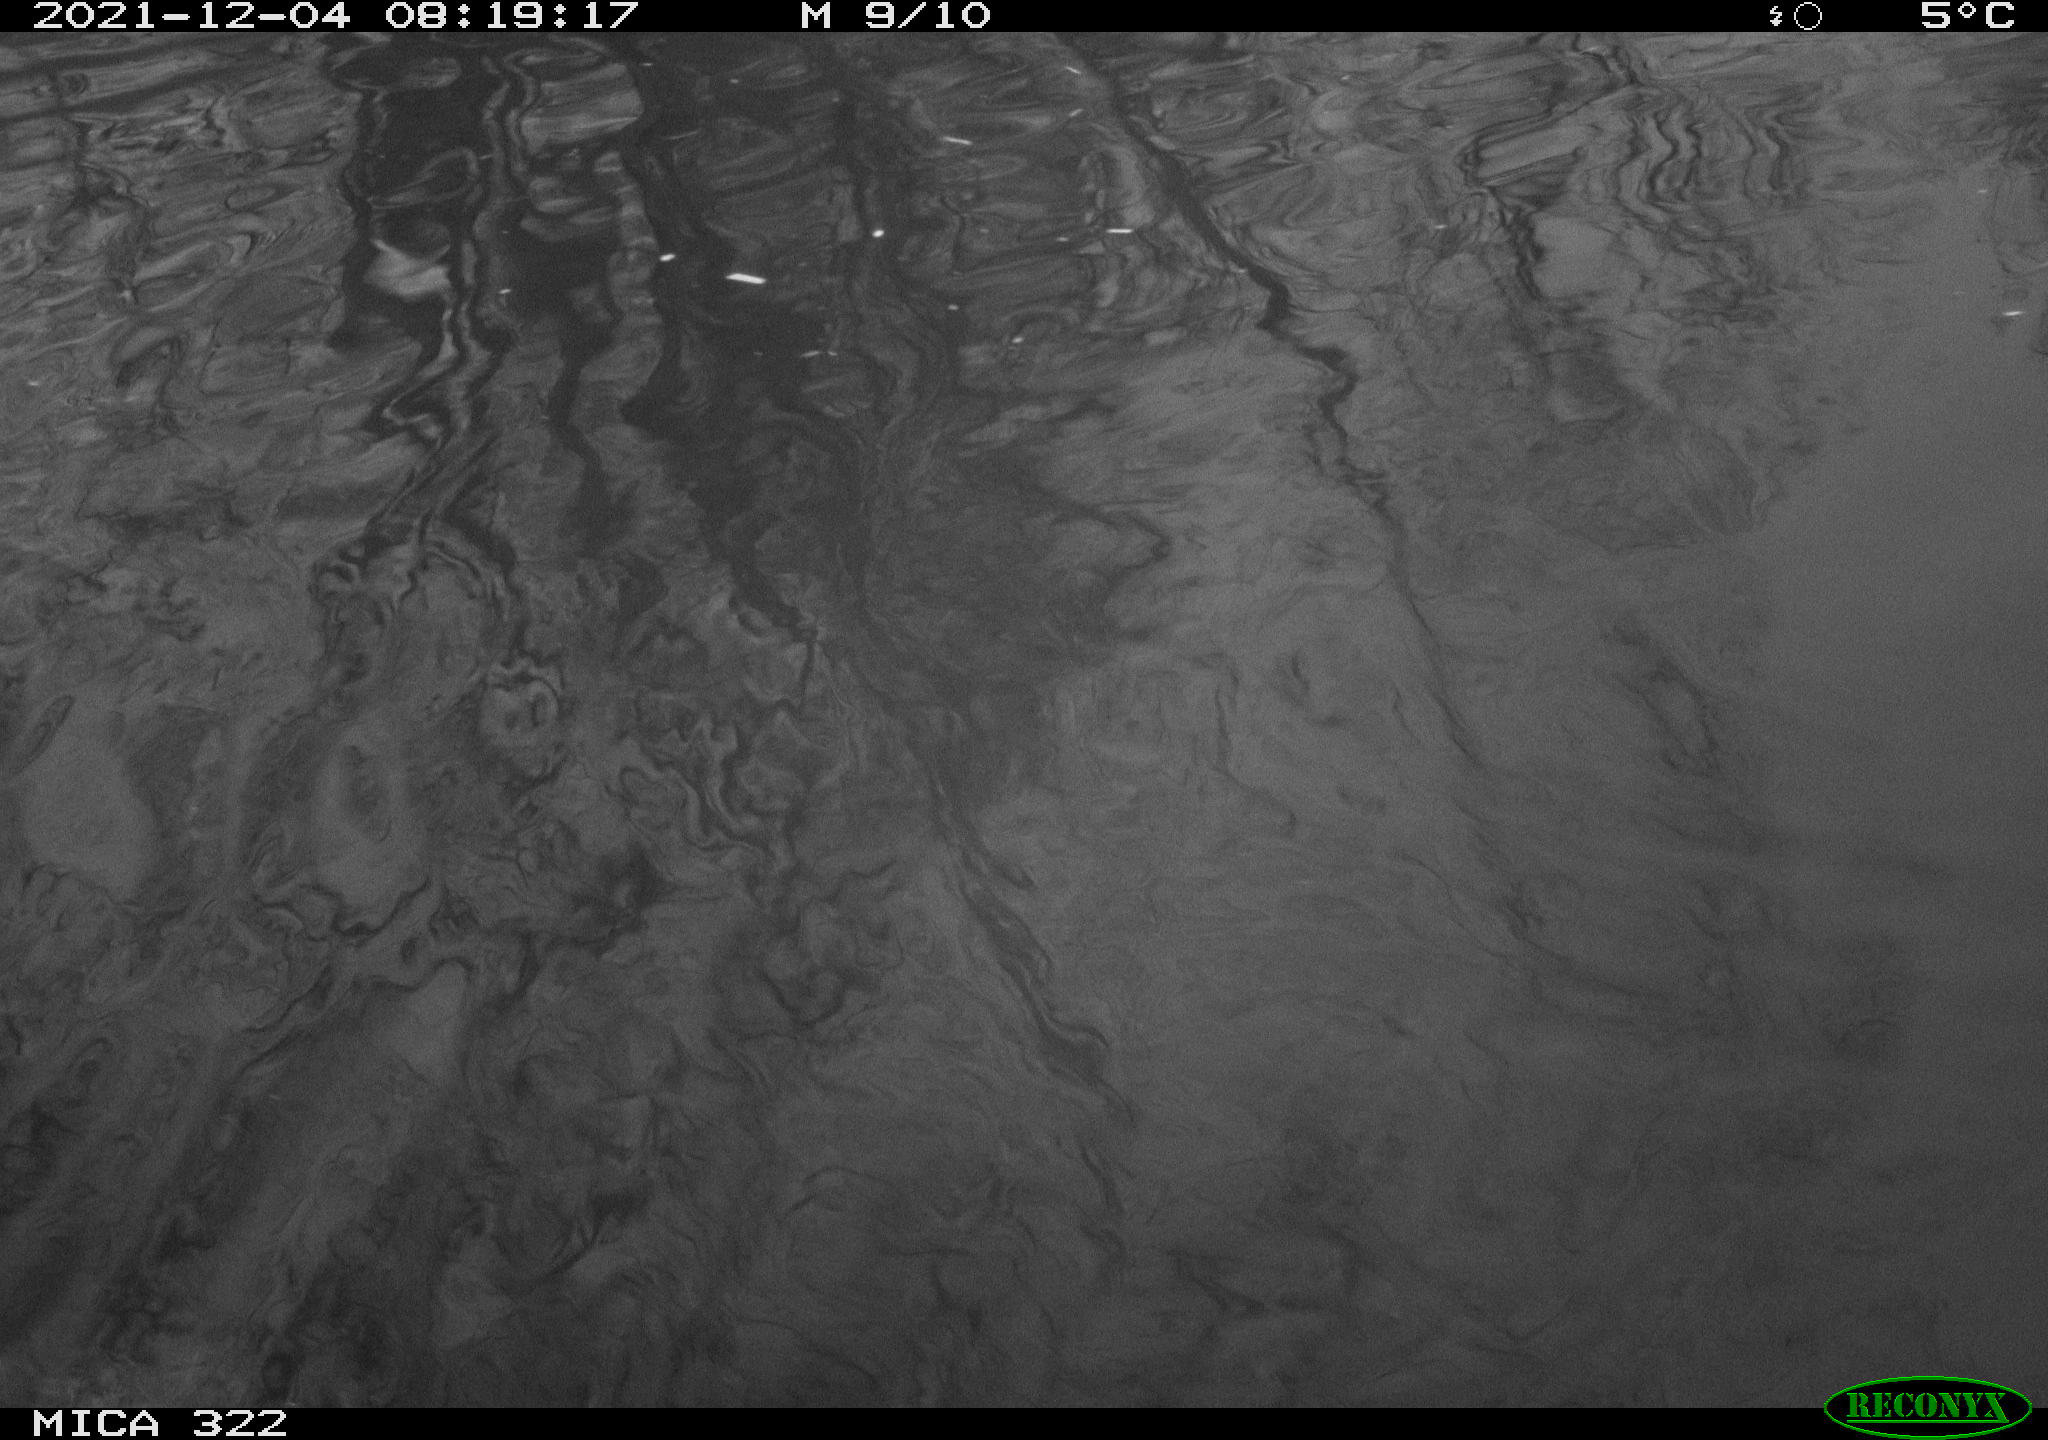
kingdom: Animalia
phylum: Chordata
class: Aves
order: Anseriformes
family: Anatidae
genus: Anas
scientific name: Anas
